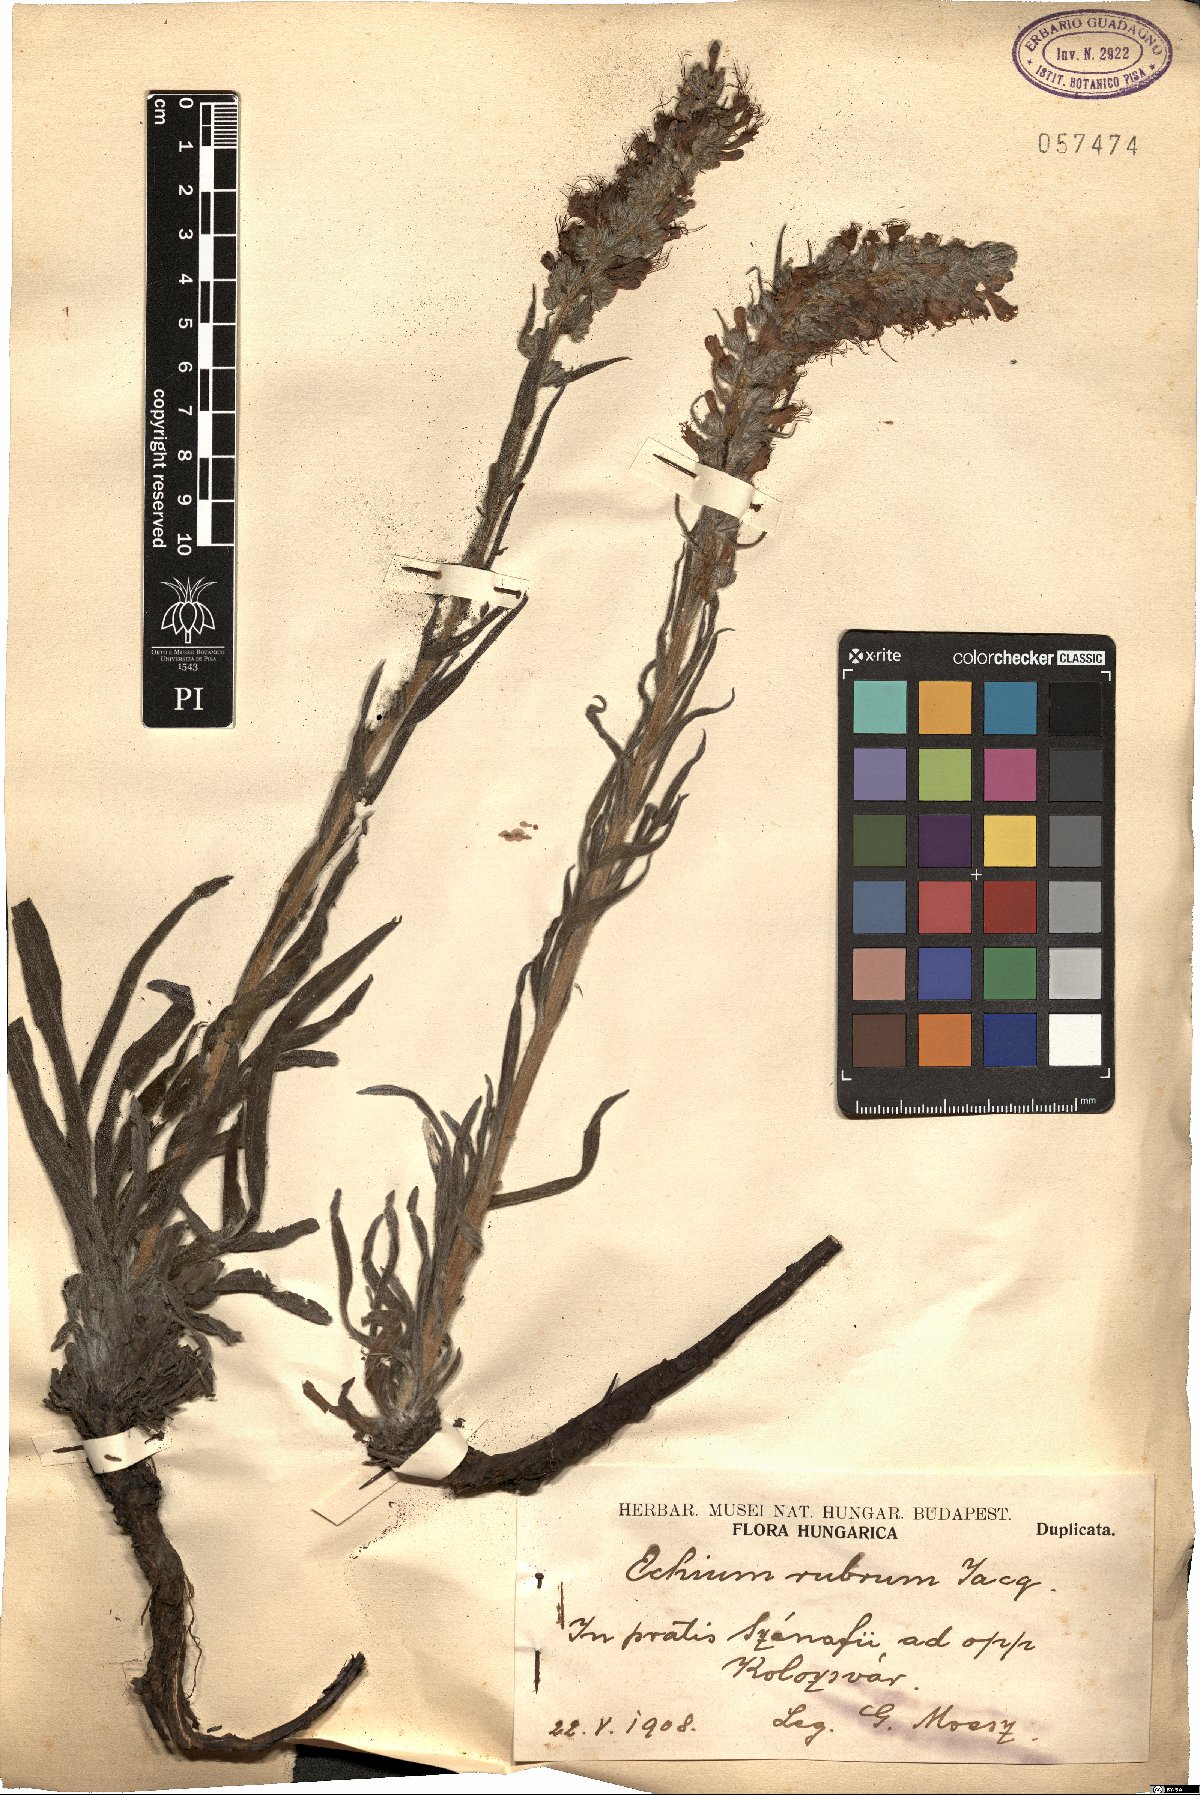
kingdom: Plantae
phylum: Tracheophyta
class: Magnoliopsida
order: Boraginales
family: Boraginaceae
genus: Pontechium
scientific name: Pontechium maculatum
